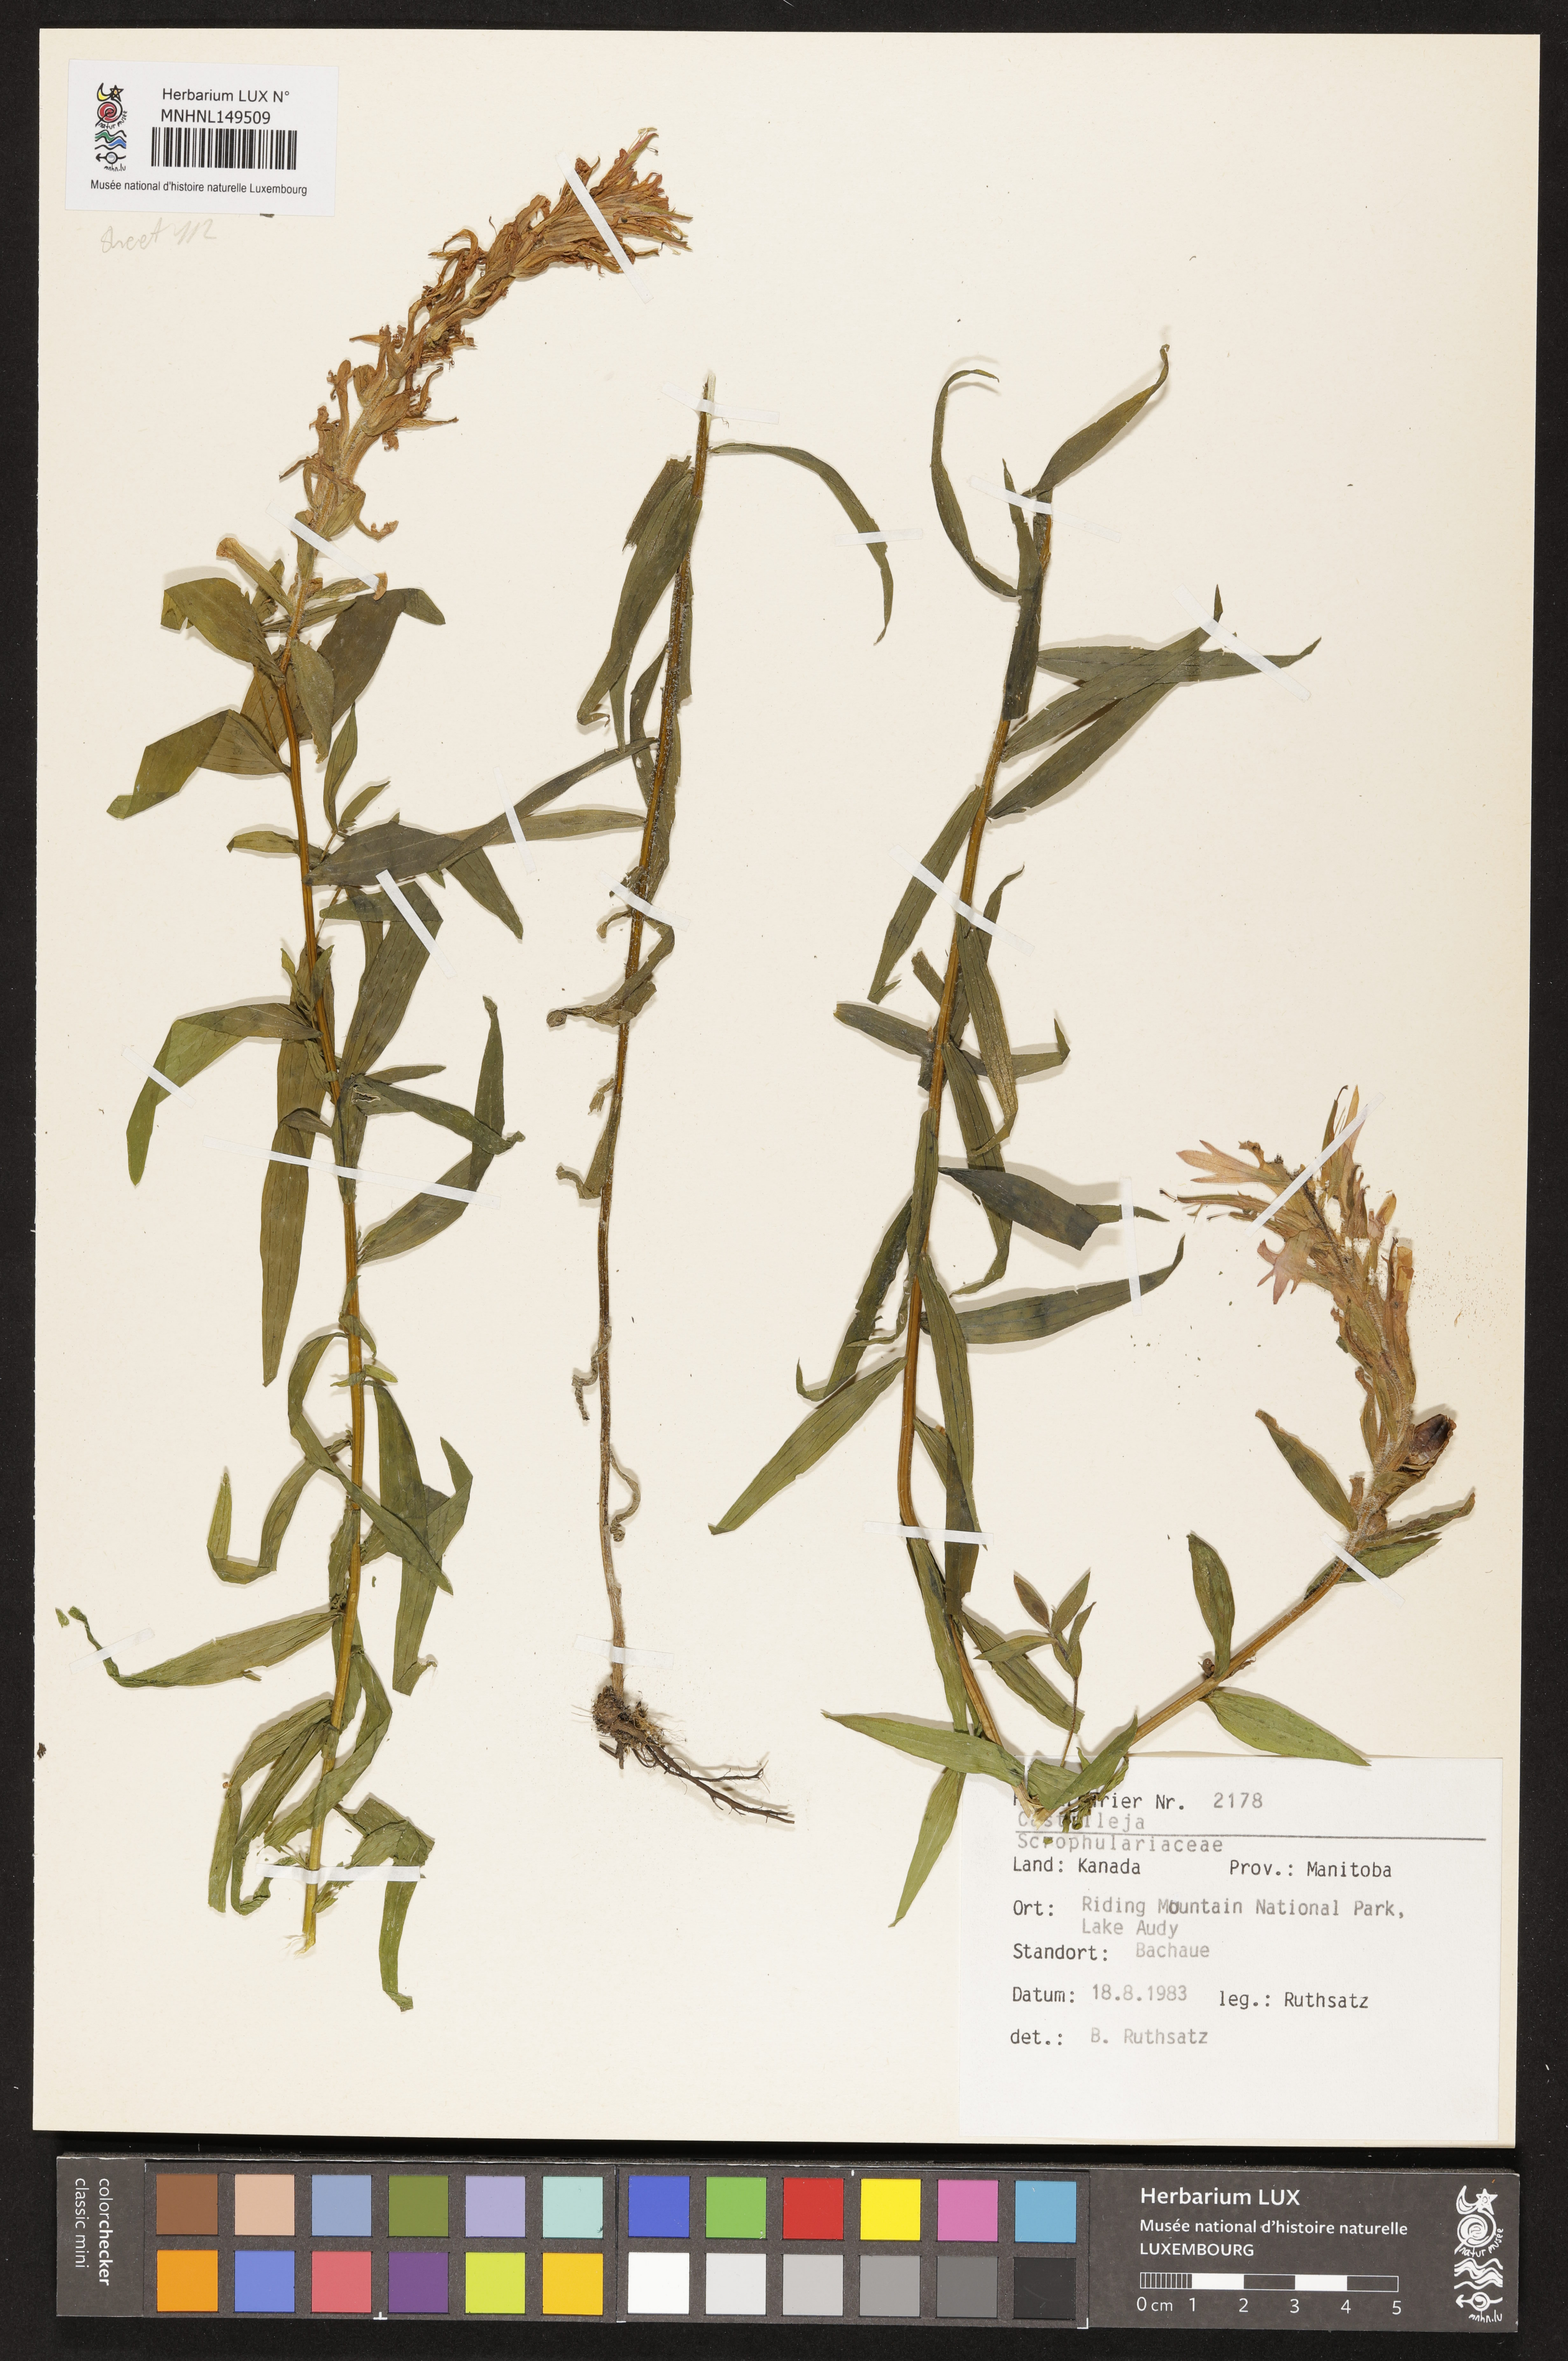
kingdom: Plantae
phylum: Tracheophyta
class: Magnoliopsida
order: Lamiales
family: Orobanchaceae
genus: Castilleja
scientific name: Castilleja
